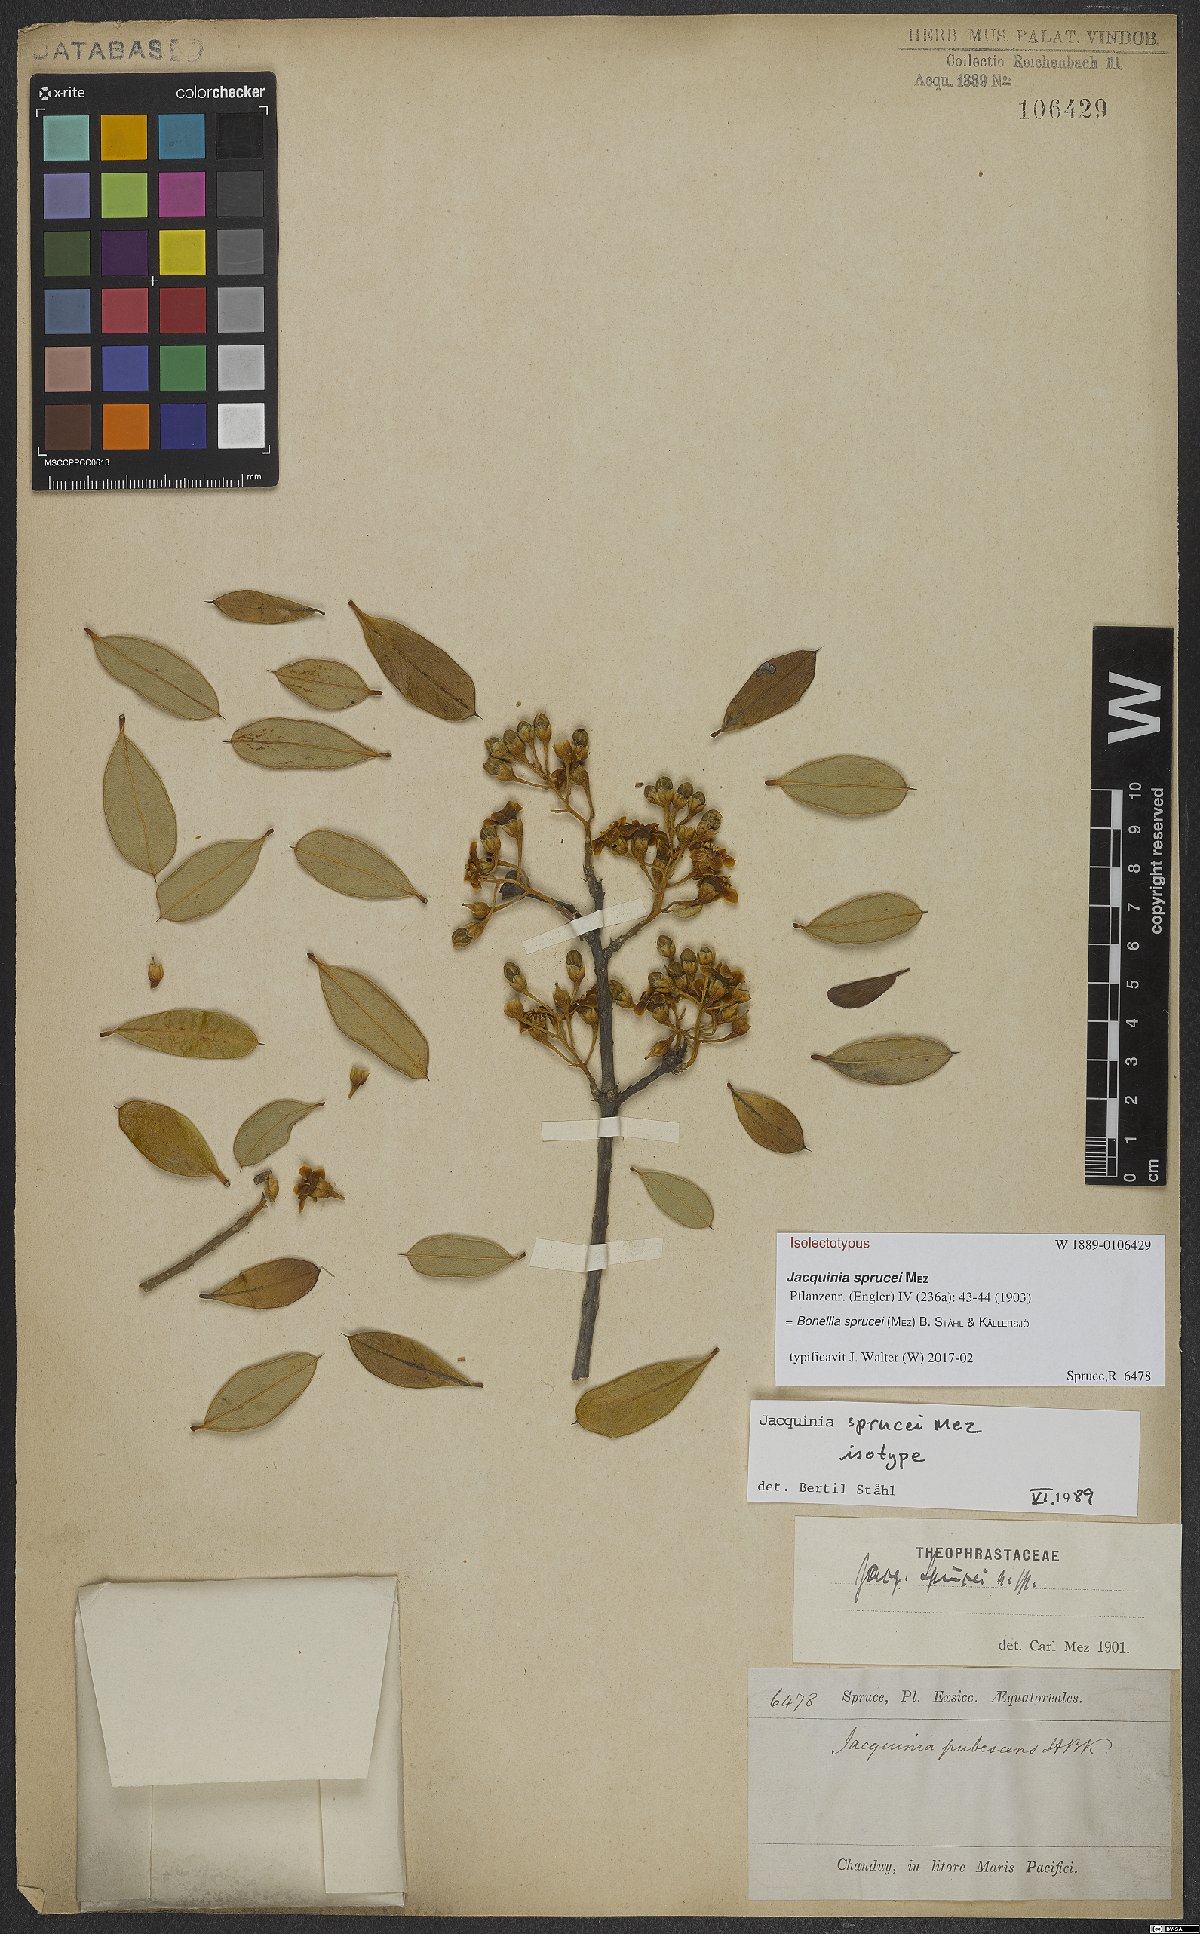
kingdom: Plantae
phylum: Tracheophyta
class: Magnoliopsida
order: Ericales
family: Primulaceae
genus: Bonellia
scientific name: Bonellia sprucei
